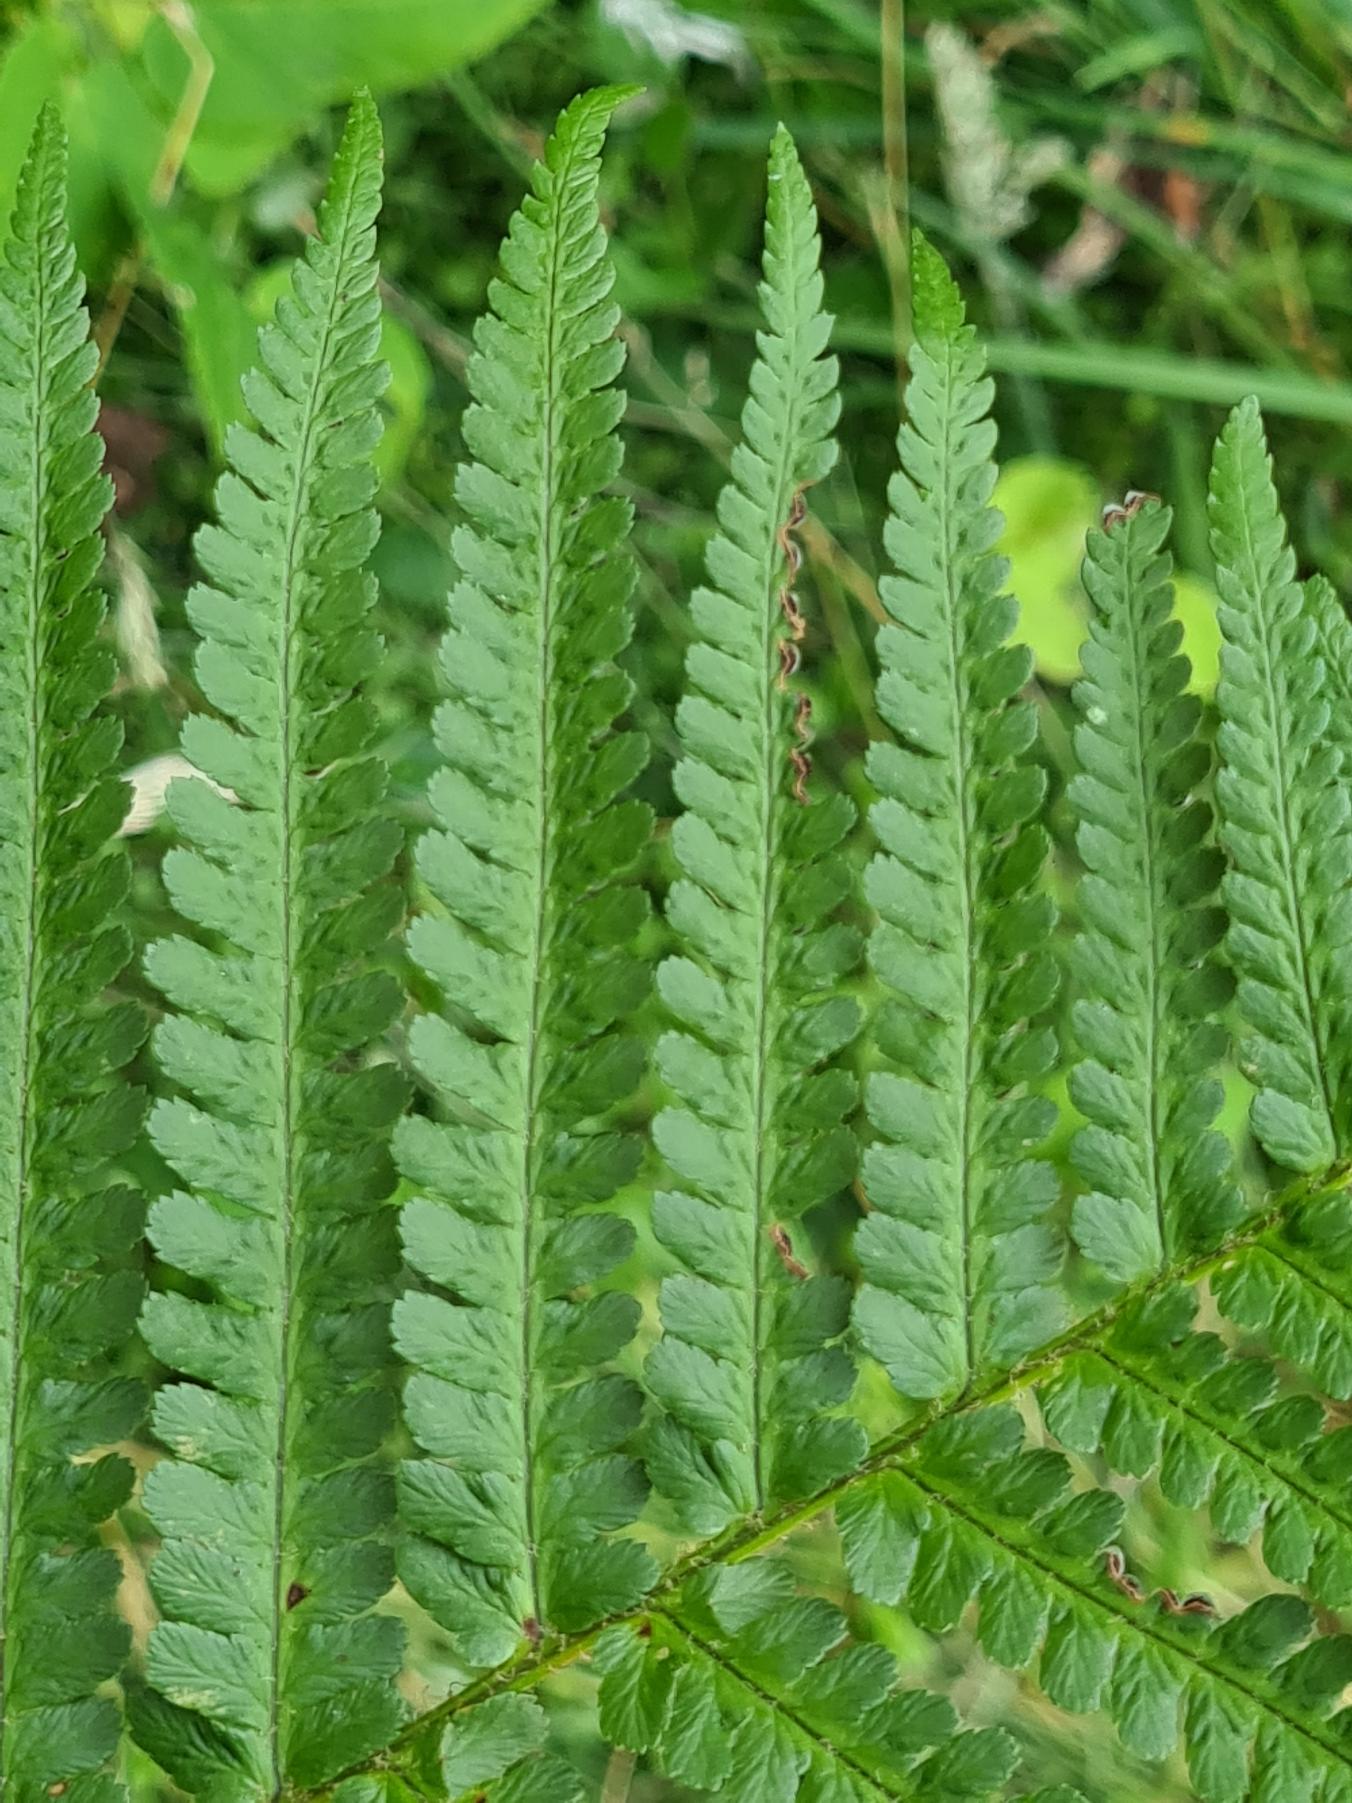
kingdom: Plantae
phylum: Tracheophyta
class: Polypodiopsida
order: Polypodiales
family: Dryopteridaceae
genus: Dryopteris
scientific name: Dryopteris filix-mas
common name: Almindelig mangeløv
